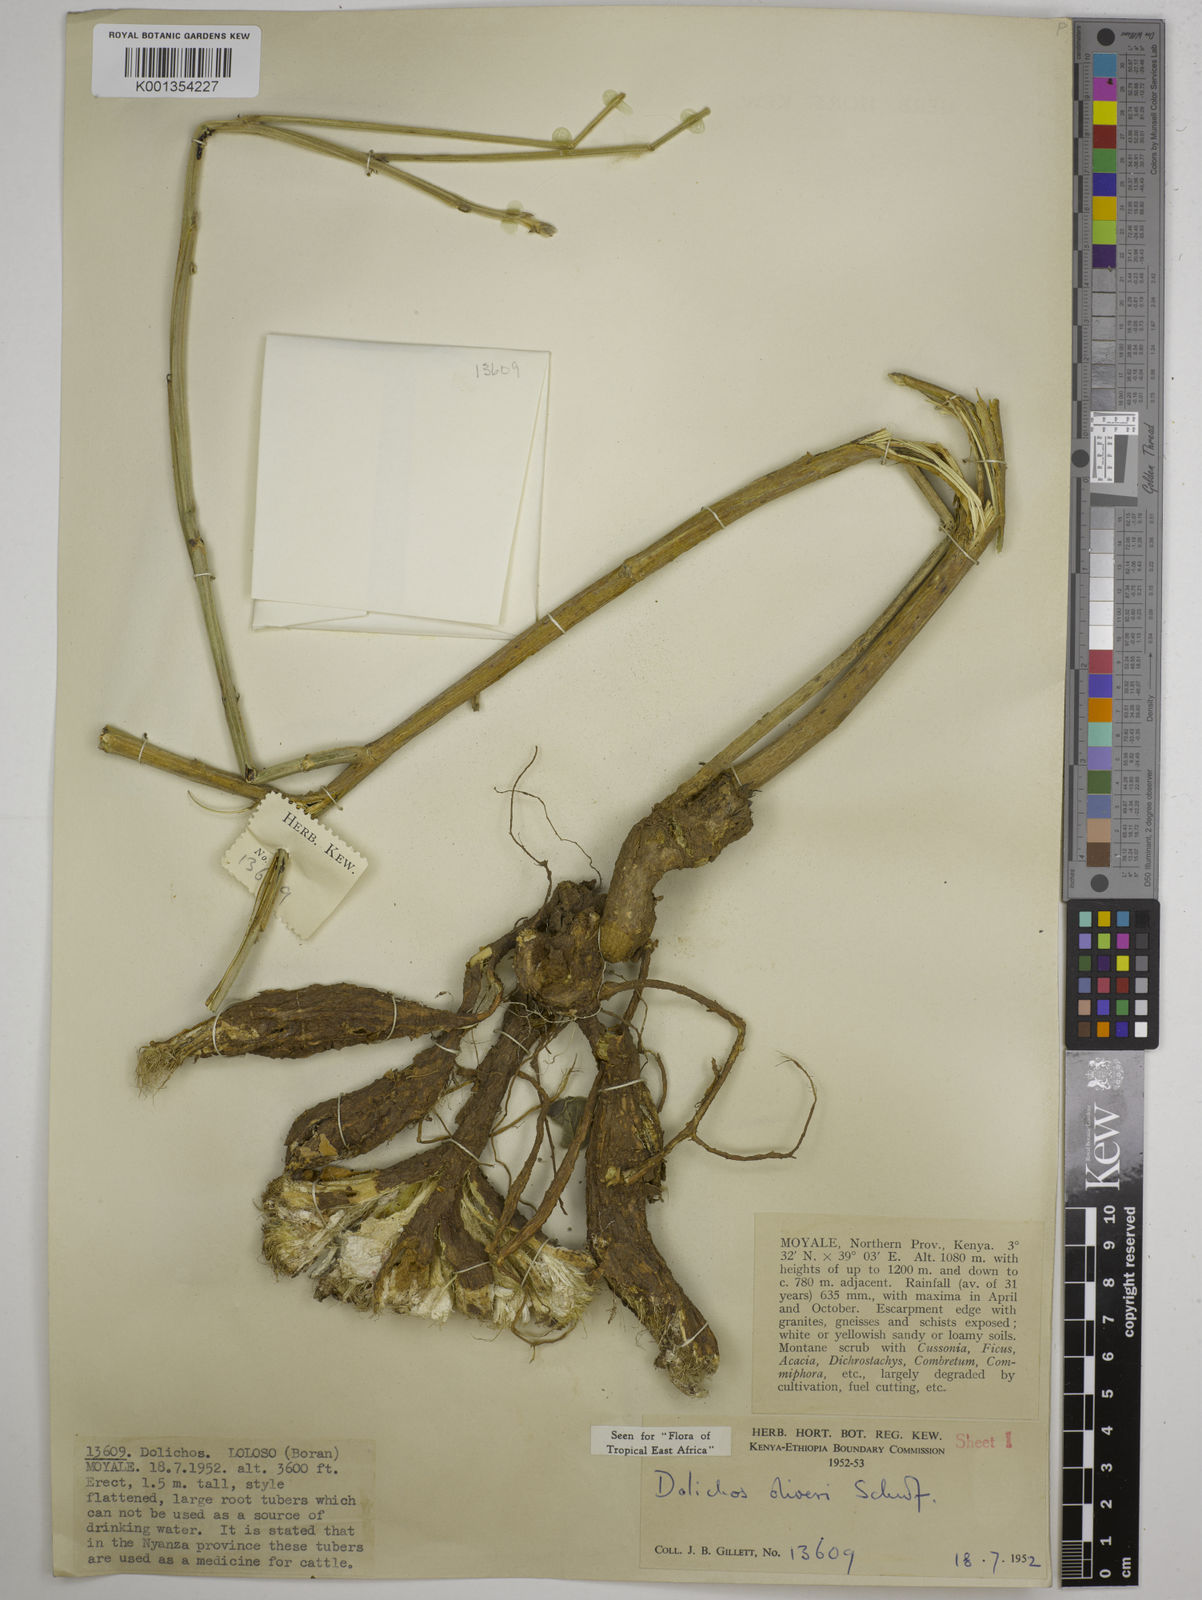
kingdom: Plantae
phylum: Tracheophyta
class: Magnoliopsida
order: Fabales
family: Fabaceae
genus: Dolichos
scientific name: Dolichos oliveri
